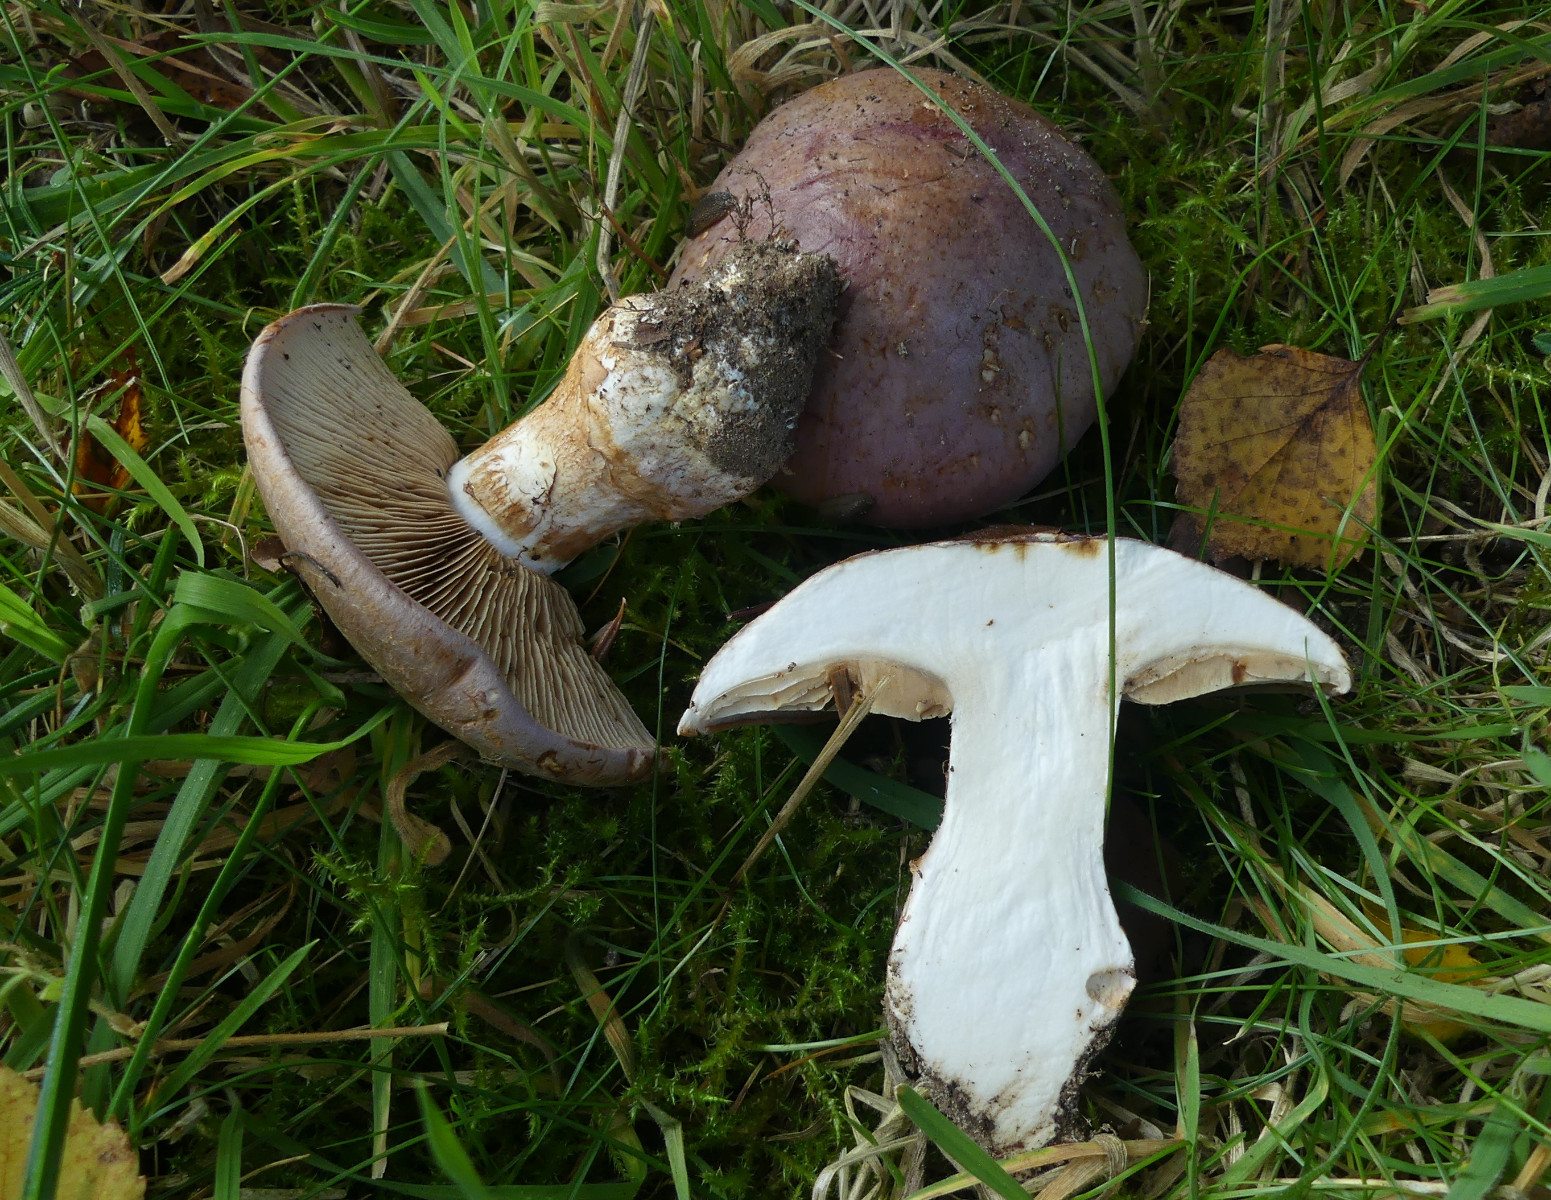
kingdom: Fungi
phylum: Basidiomycota
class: Agaricomycetes
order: Agaricales
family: Cortinariaceae
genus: Phlegmacium
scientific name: Phlegmacium balteatocumatile
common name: violettrådet slørhat
